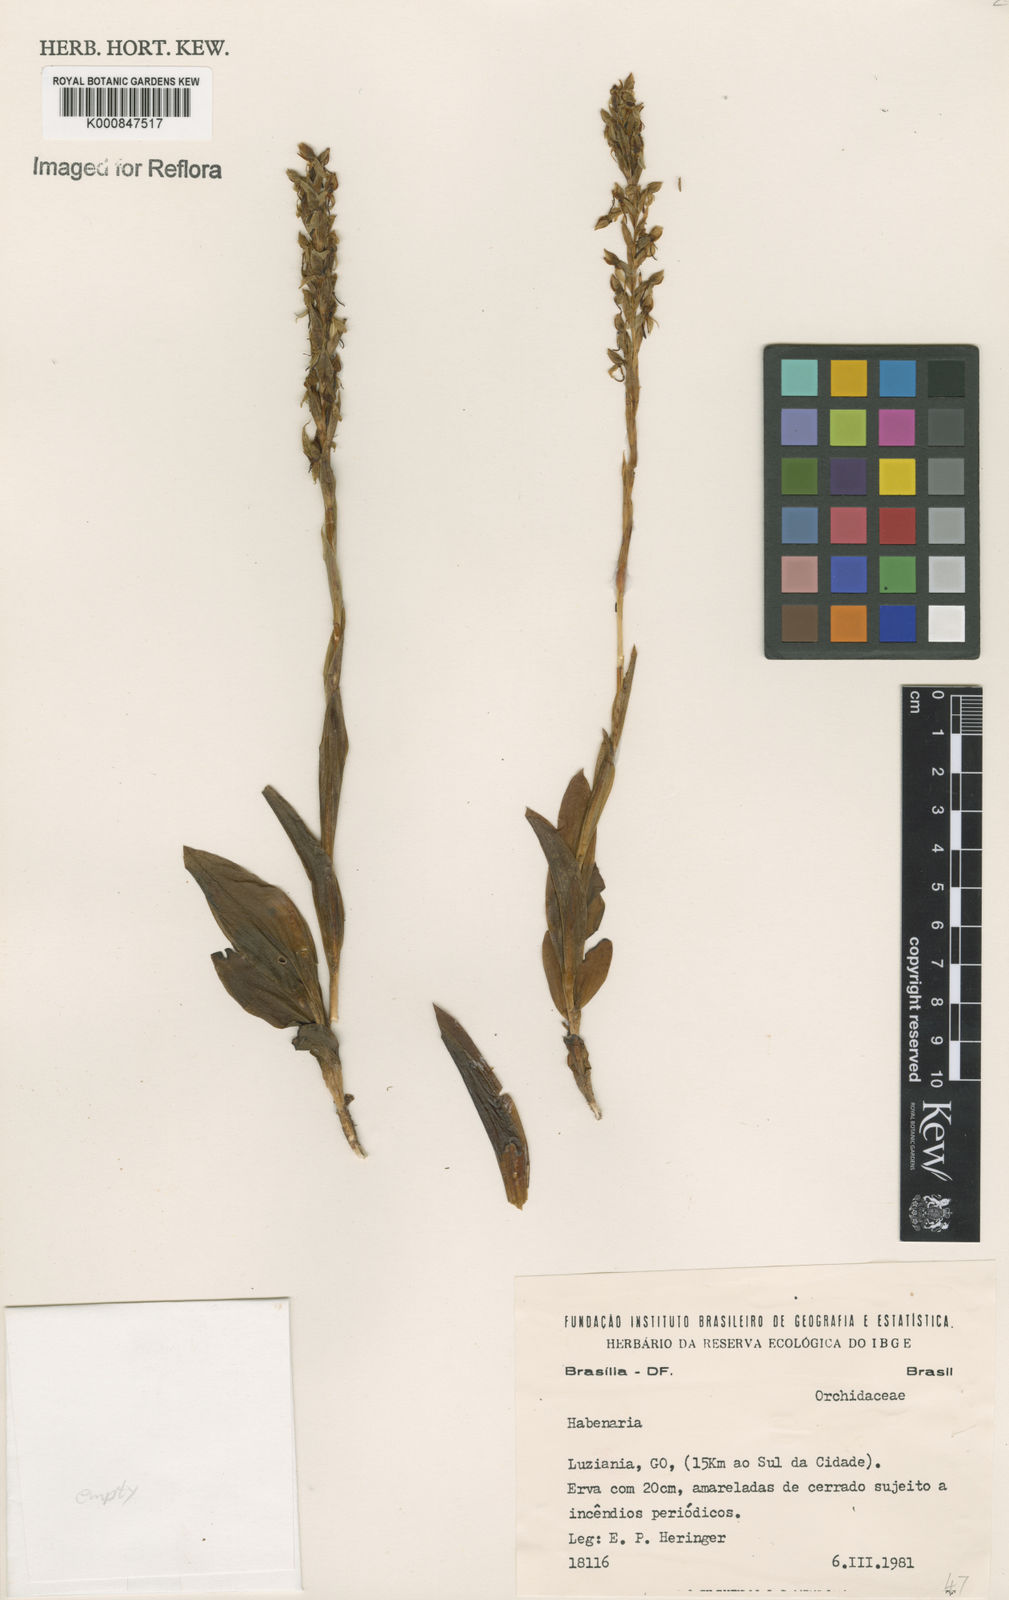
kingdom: Plantae
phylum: Tracheophyta
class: Liliopsida
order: Asparagales
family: Orchidaceae
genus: Habenaria
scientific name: Habenaria
